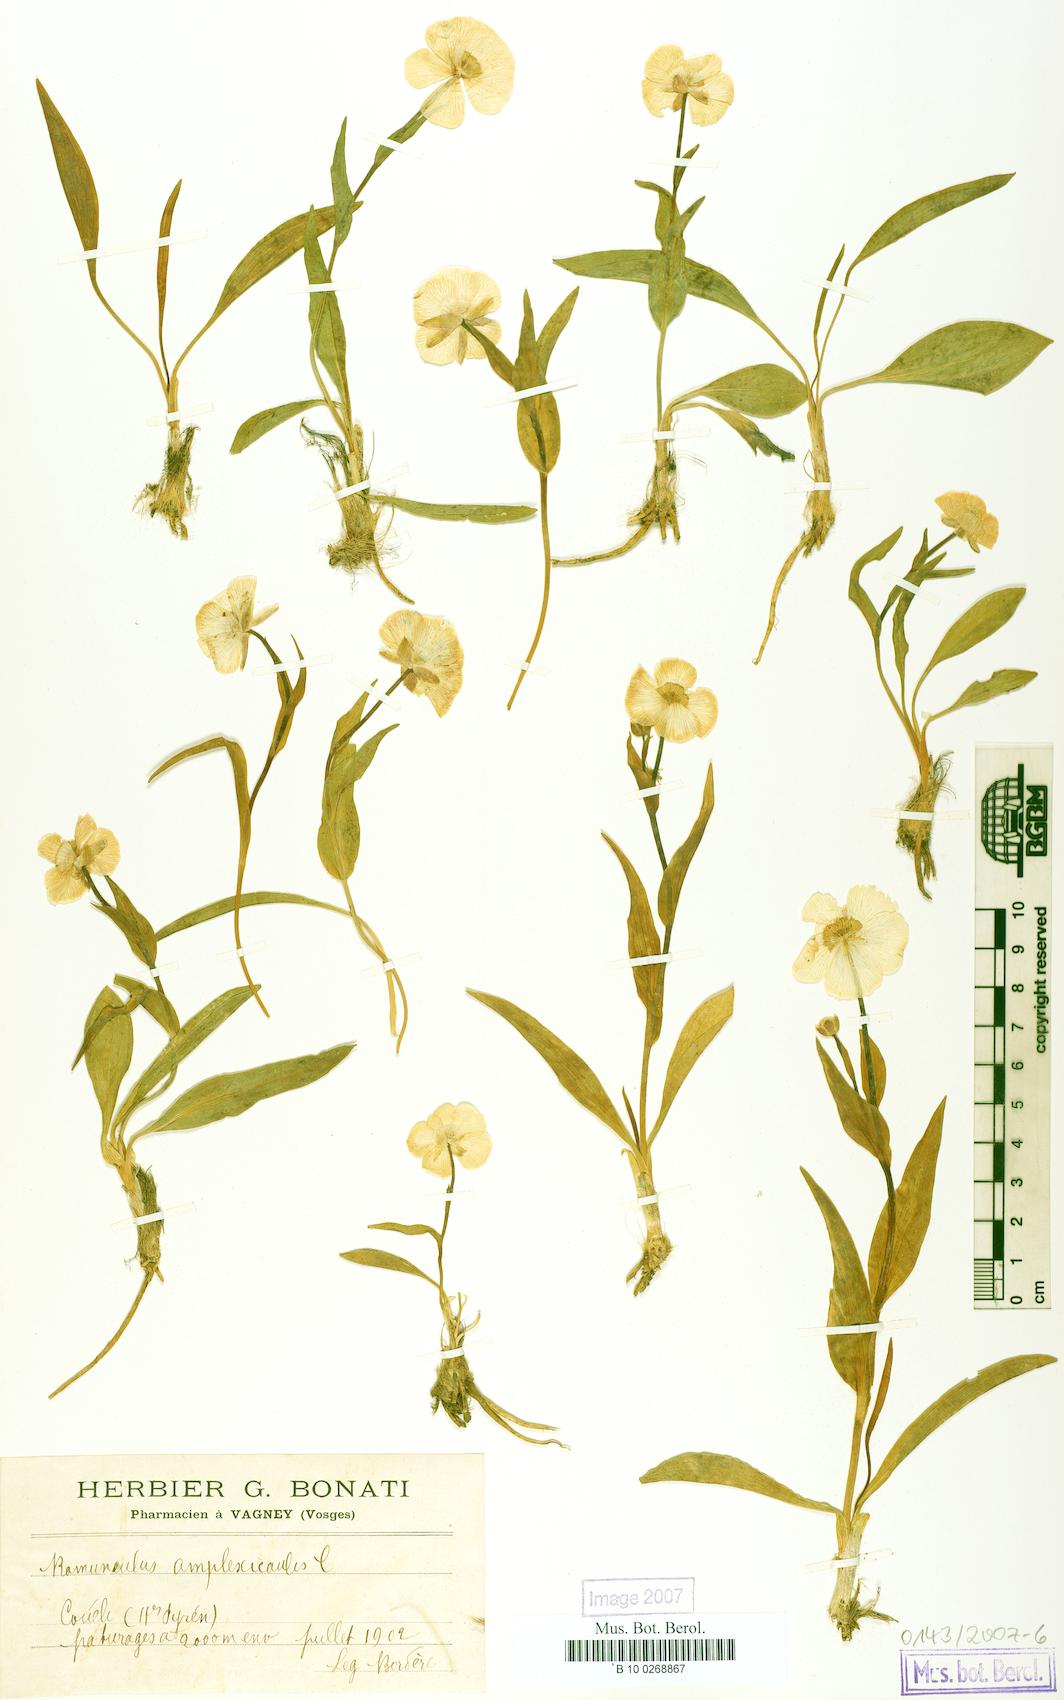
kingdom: Plantae
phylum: Tracheophyta
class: Magnoliopsida
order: Ranunculales
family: Ranunculaceae
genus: Ranunculus
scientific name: Ranunculus amplexicaulis
